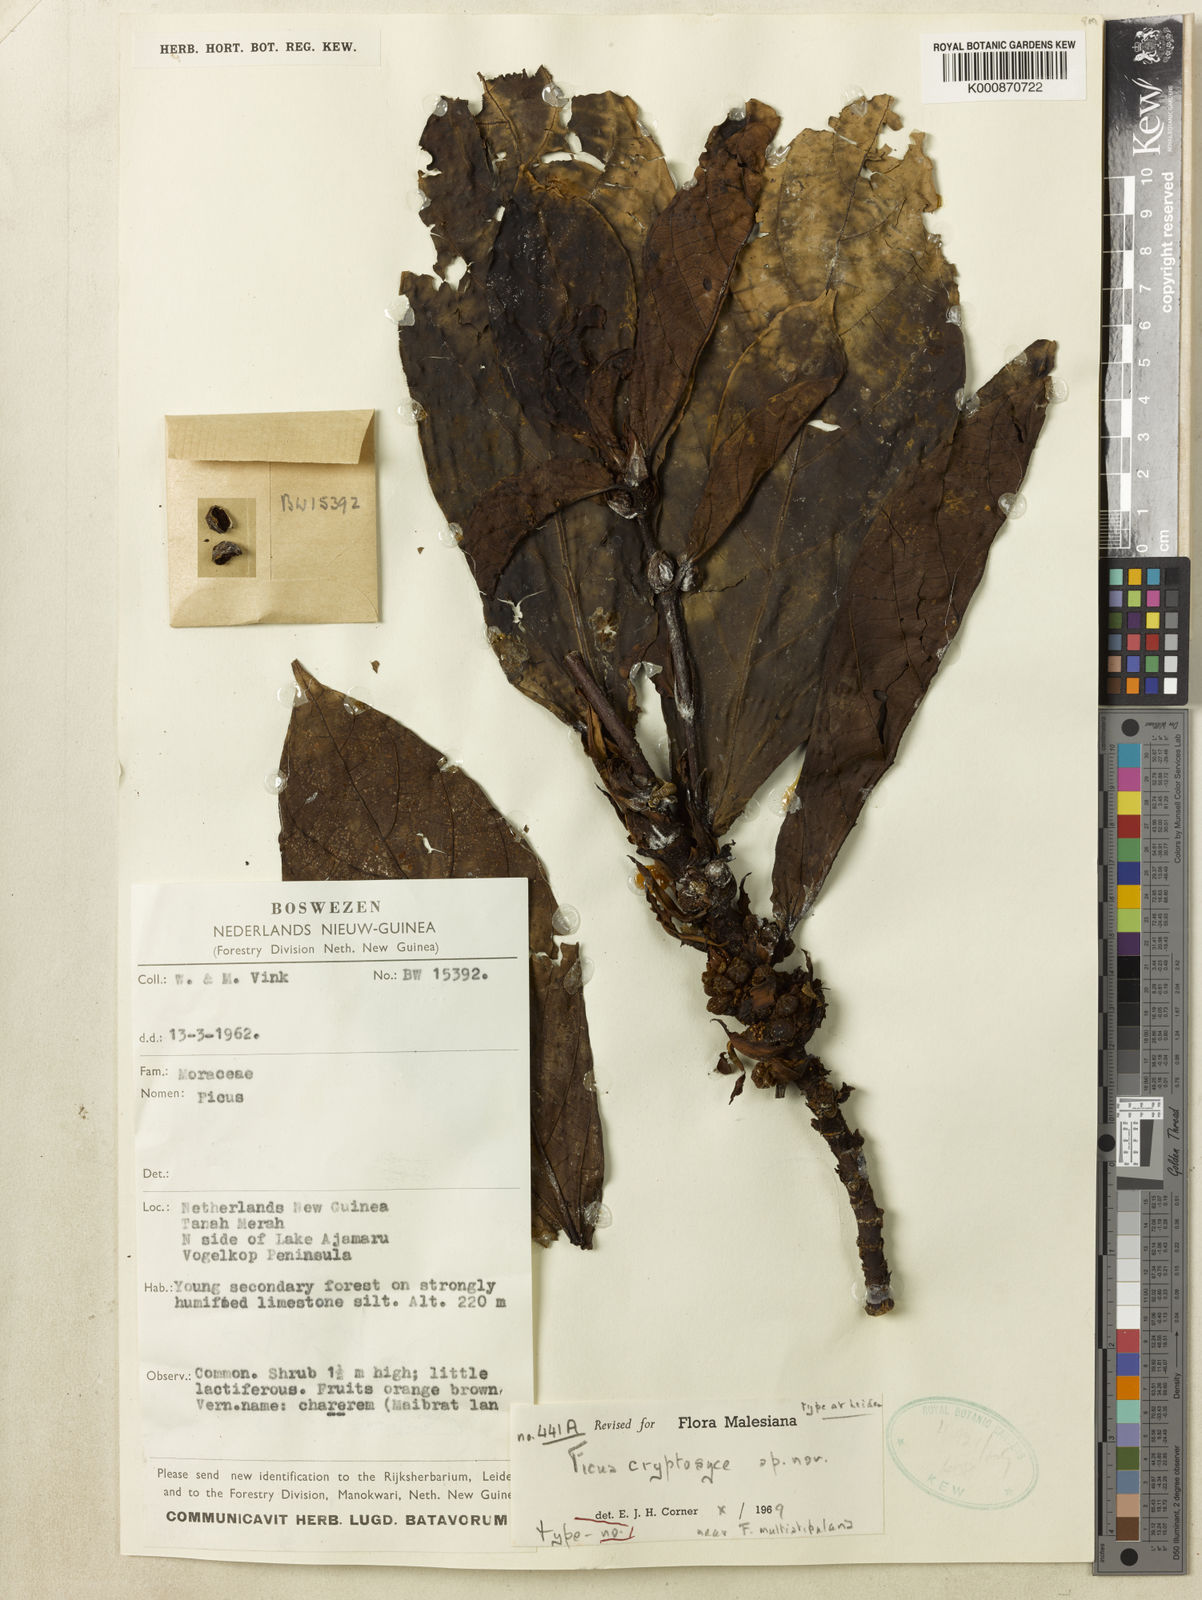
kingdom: Plantae
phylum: Tracheophyta
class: Magnoliopsida
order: Rosales
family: Moraceae
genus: Ficus
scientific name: Ficus cryptosyce
